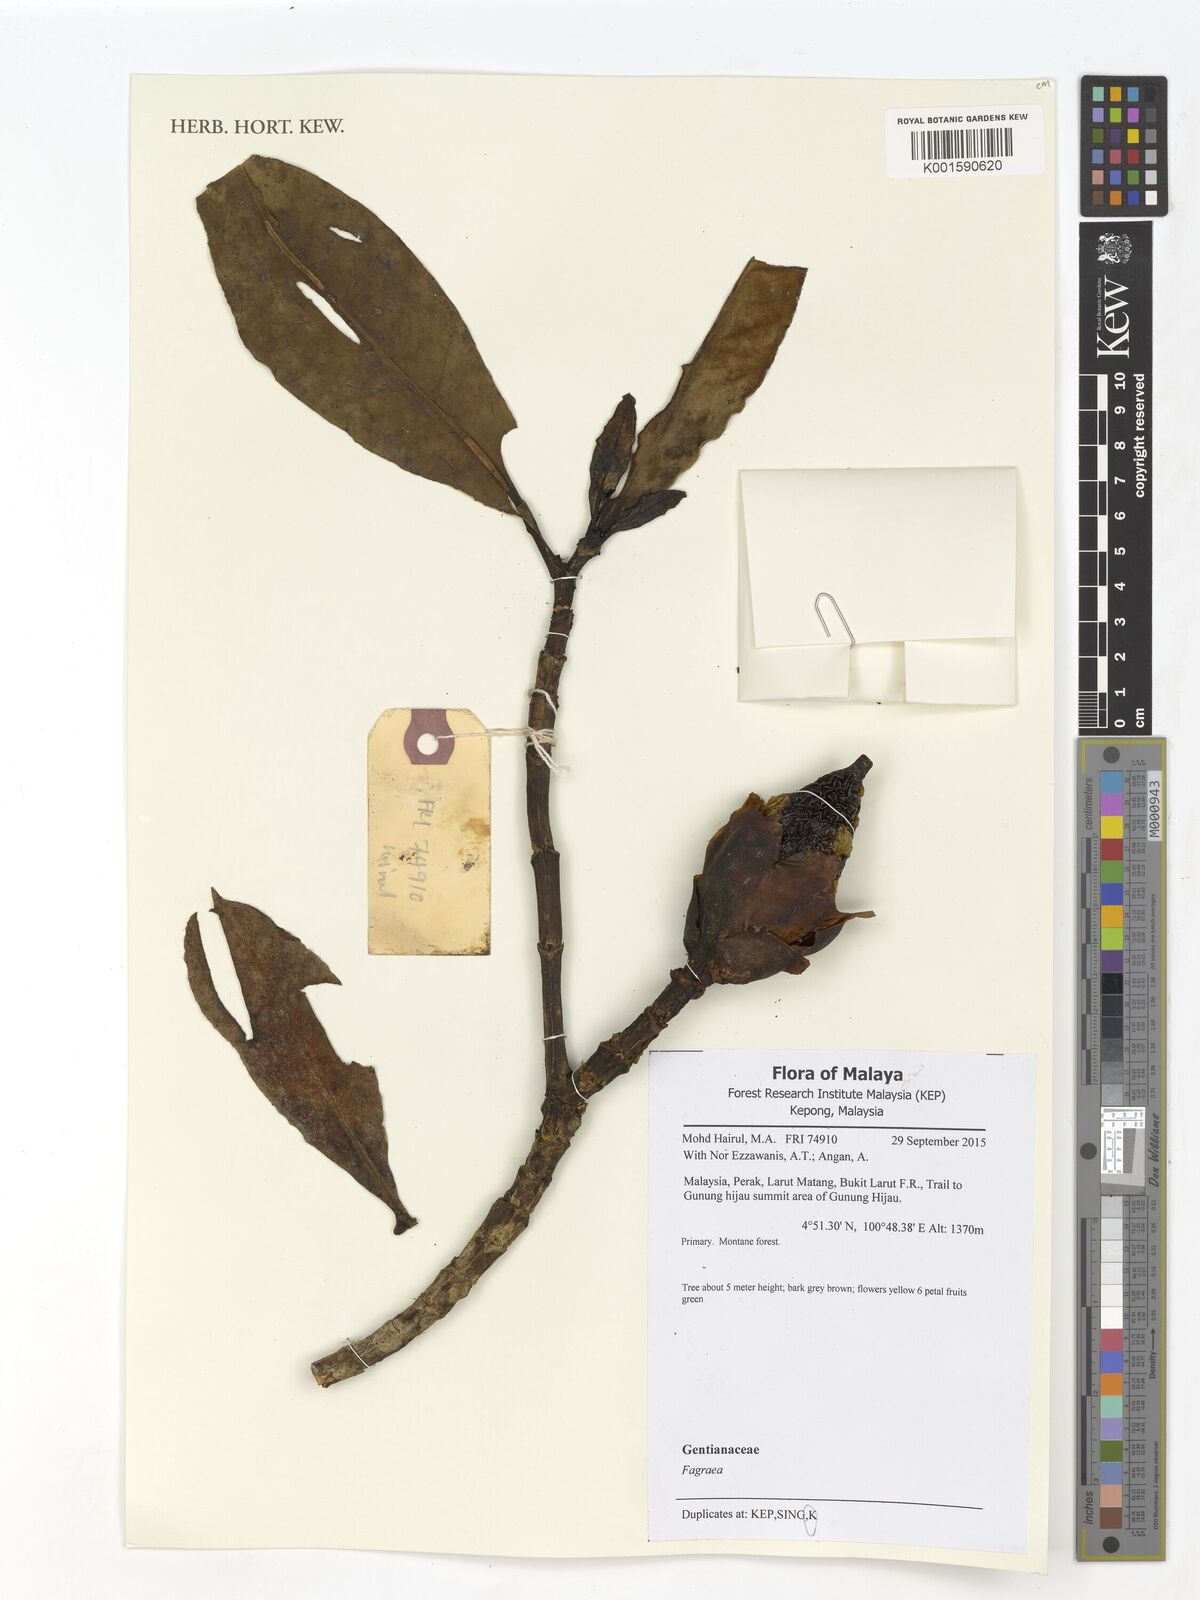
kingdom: Plantae
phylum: Tracheophyta
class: Magnoliopsida
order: Gentianales
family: Gentianaceae
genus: Fagraea
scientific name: Fagraea
